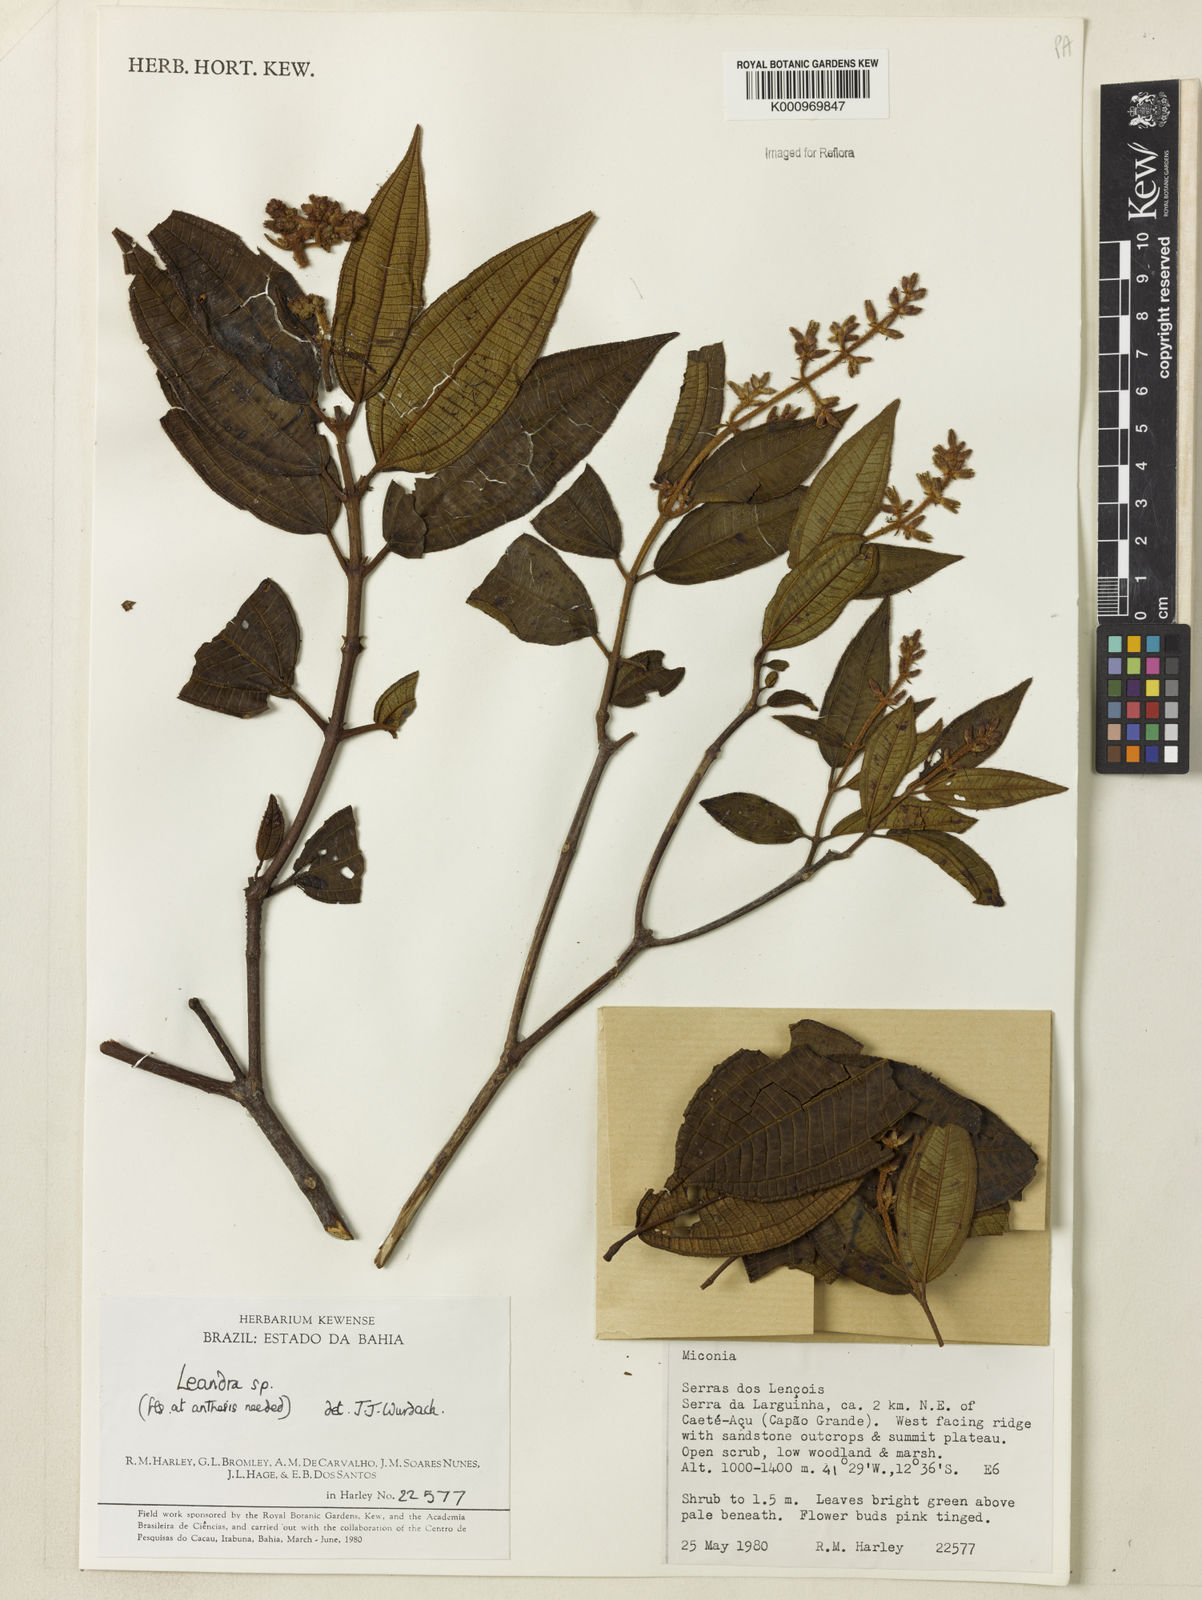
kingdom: Plantae
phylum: Tracheophyta
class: Magnoliopsida
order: Myrtales
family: Melastomataceae
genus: Miconia
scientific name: Miconia
